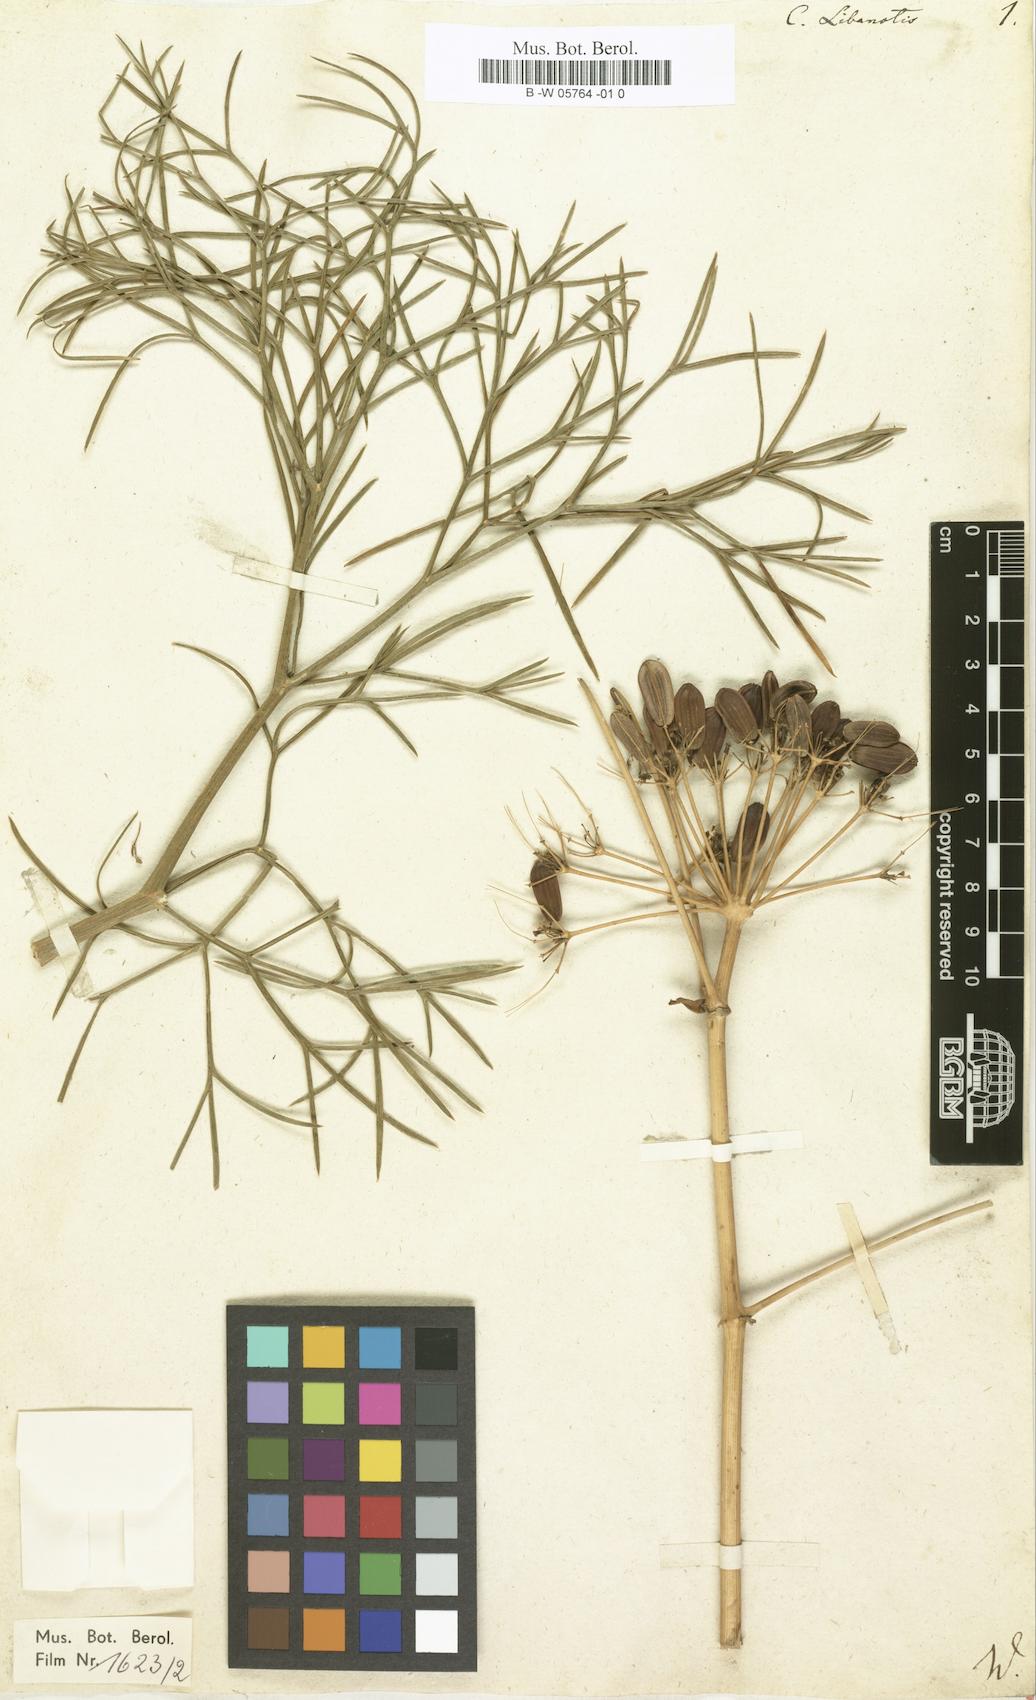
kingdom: Plantae
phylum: Tracheophyta
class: Magnoliopsida
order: Apiales
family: Apiaceae
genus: Cachrys
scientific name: Cachrys libanotis
